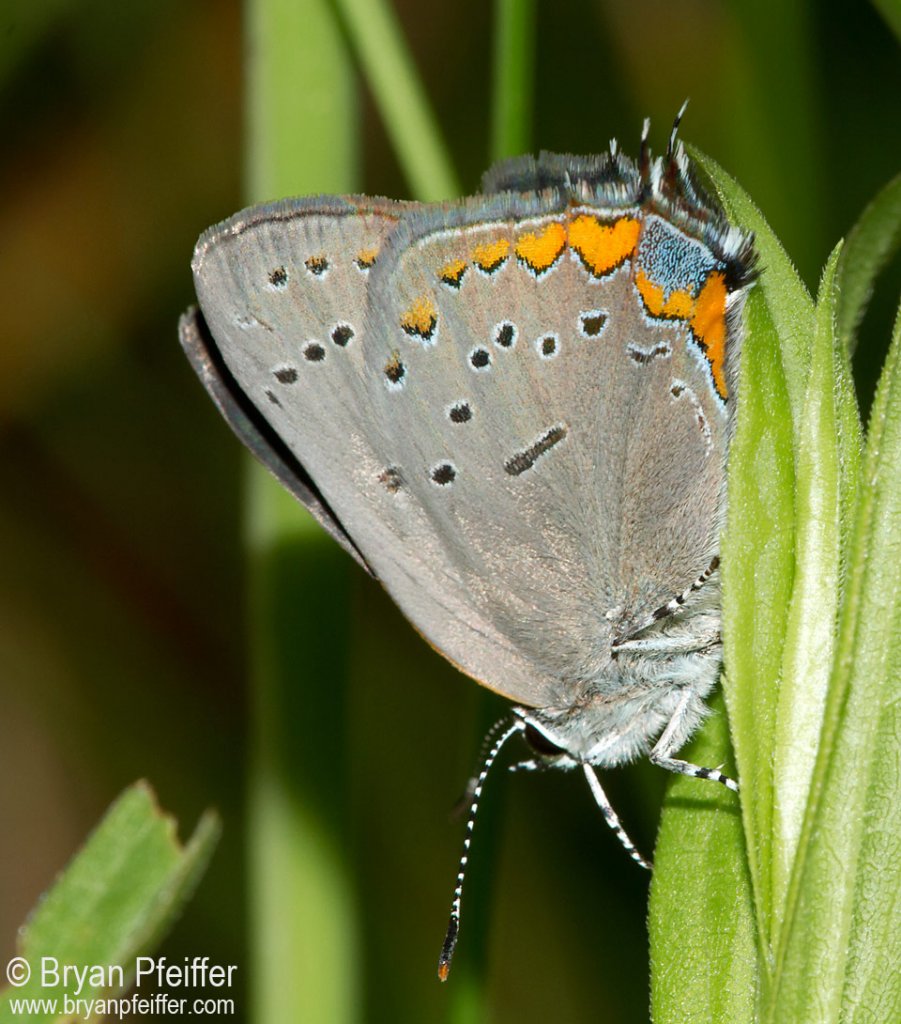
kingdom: Animalia
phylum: Arthropoda
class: Insecta
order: Lepidoptera
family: Lycaenidae
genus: Strymon
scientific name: Strymon acadica
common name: Acadian Hairstreak
